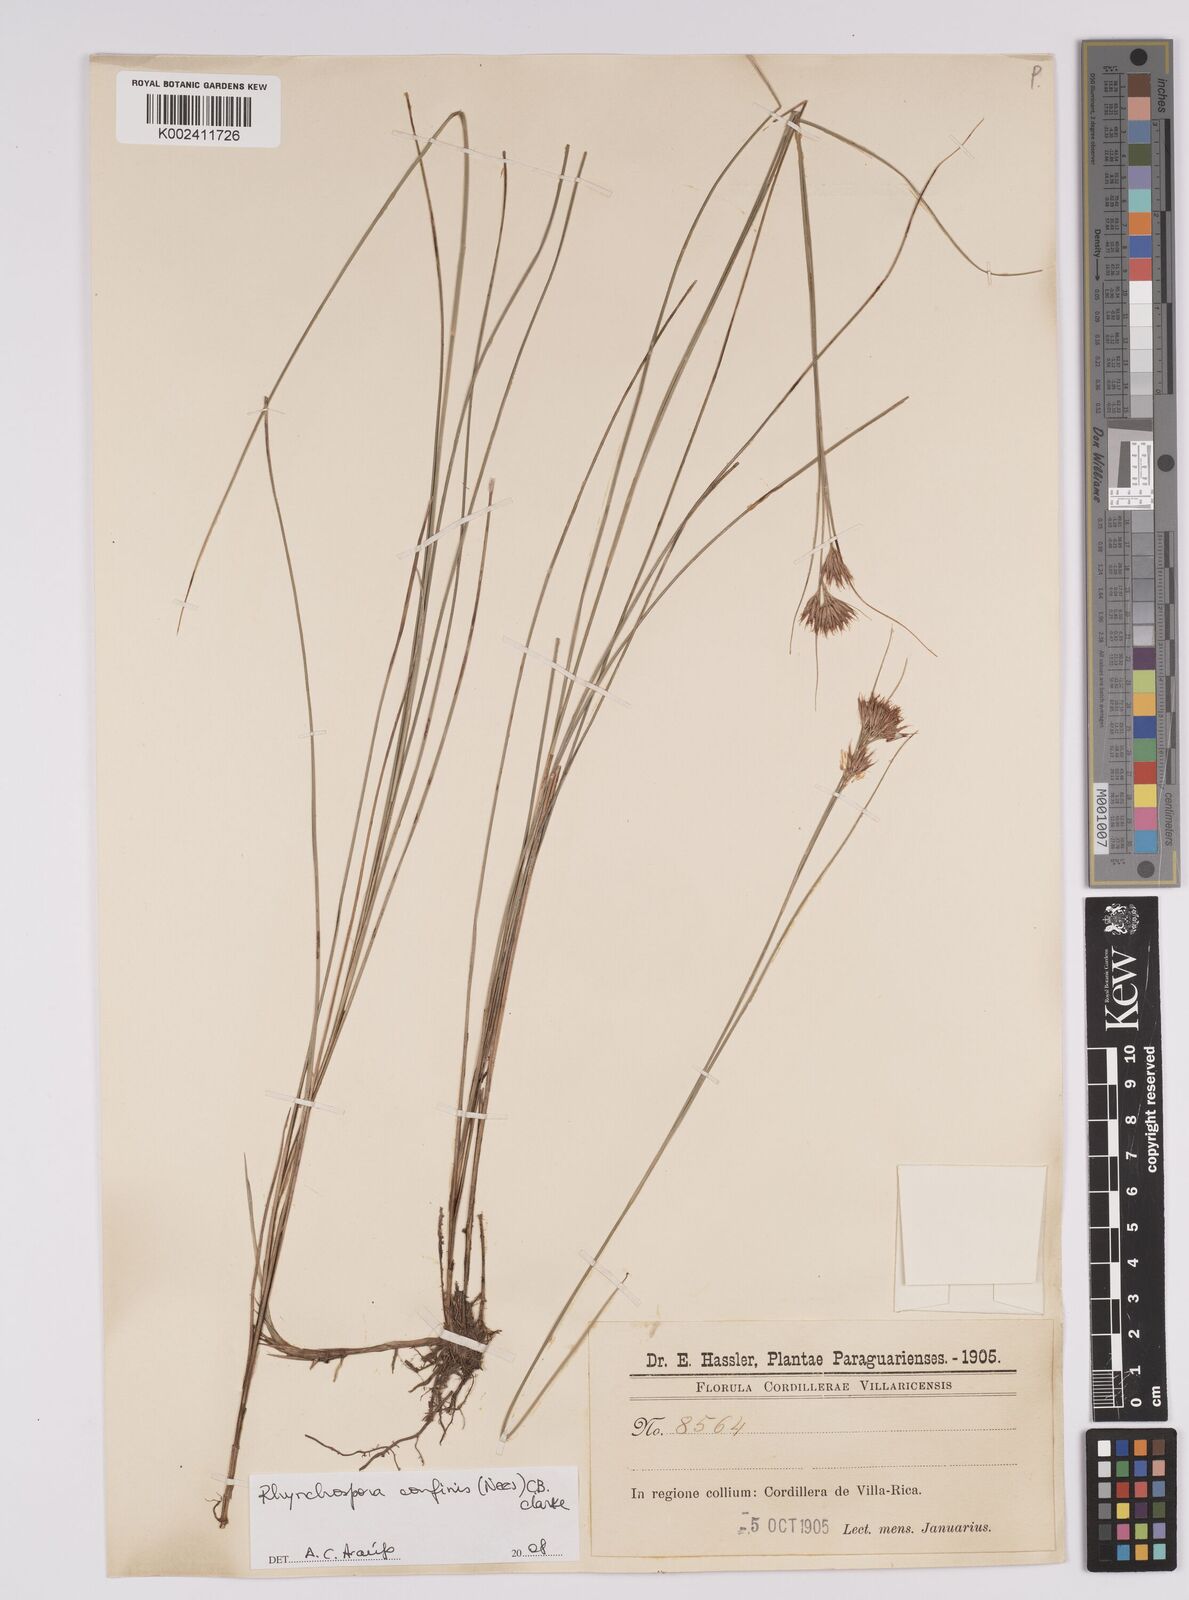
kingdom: Plantae
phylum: Tracheophyta
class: Liliopsida
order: Poales
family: Cyperaceae
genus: Rhynchospora
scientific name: Rhynchospora confinis
